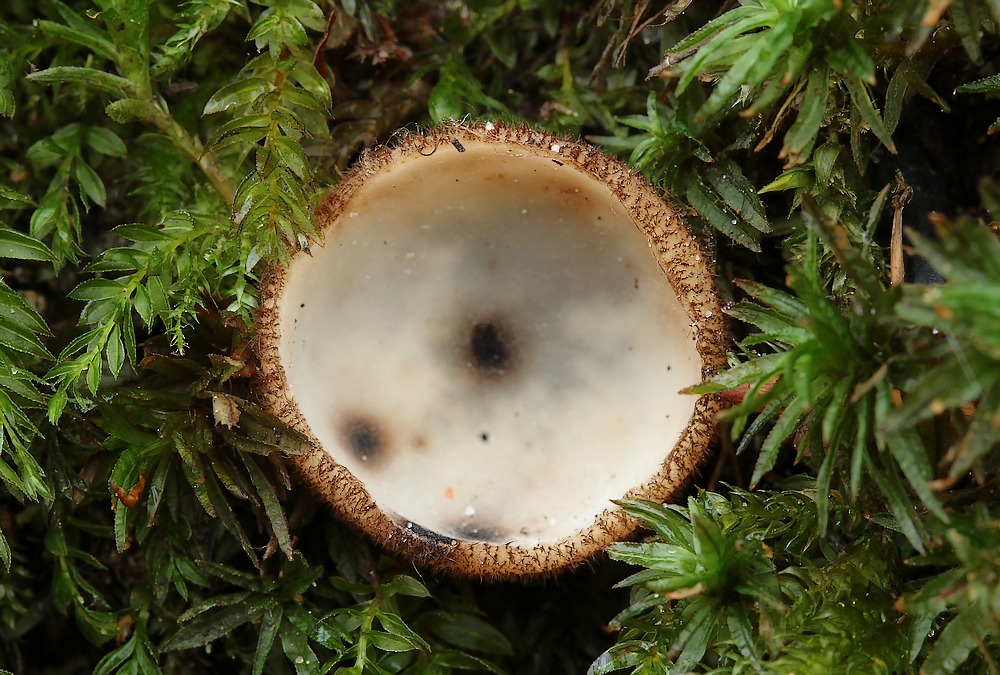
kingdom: Fungi
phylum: Ascomycota
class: Pezizomycetes
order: Pezizales
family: Pyronemataceae
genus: Humaria
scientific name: Humaria hemisphaerica
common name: halvkugleformet børstebæger
